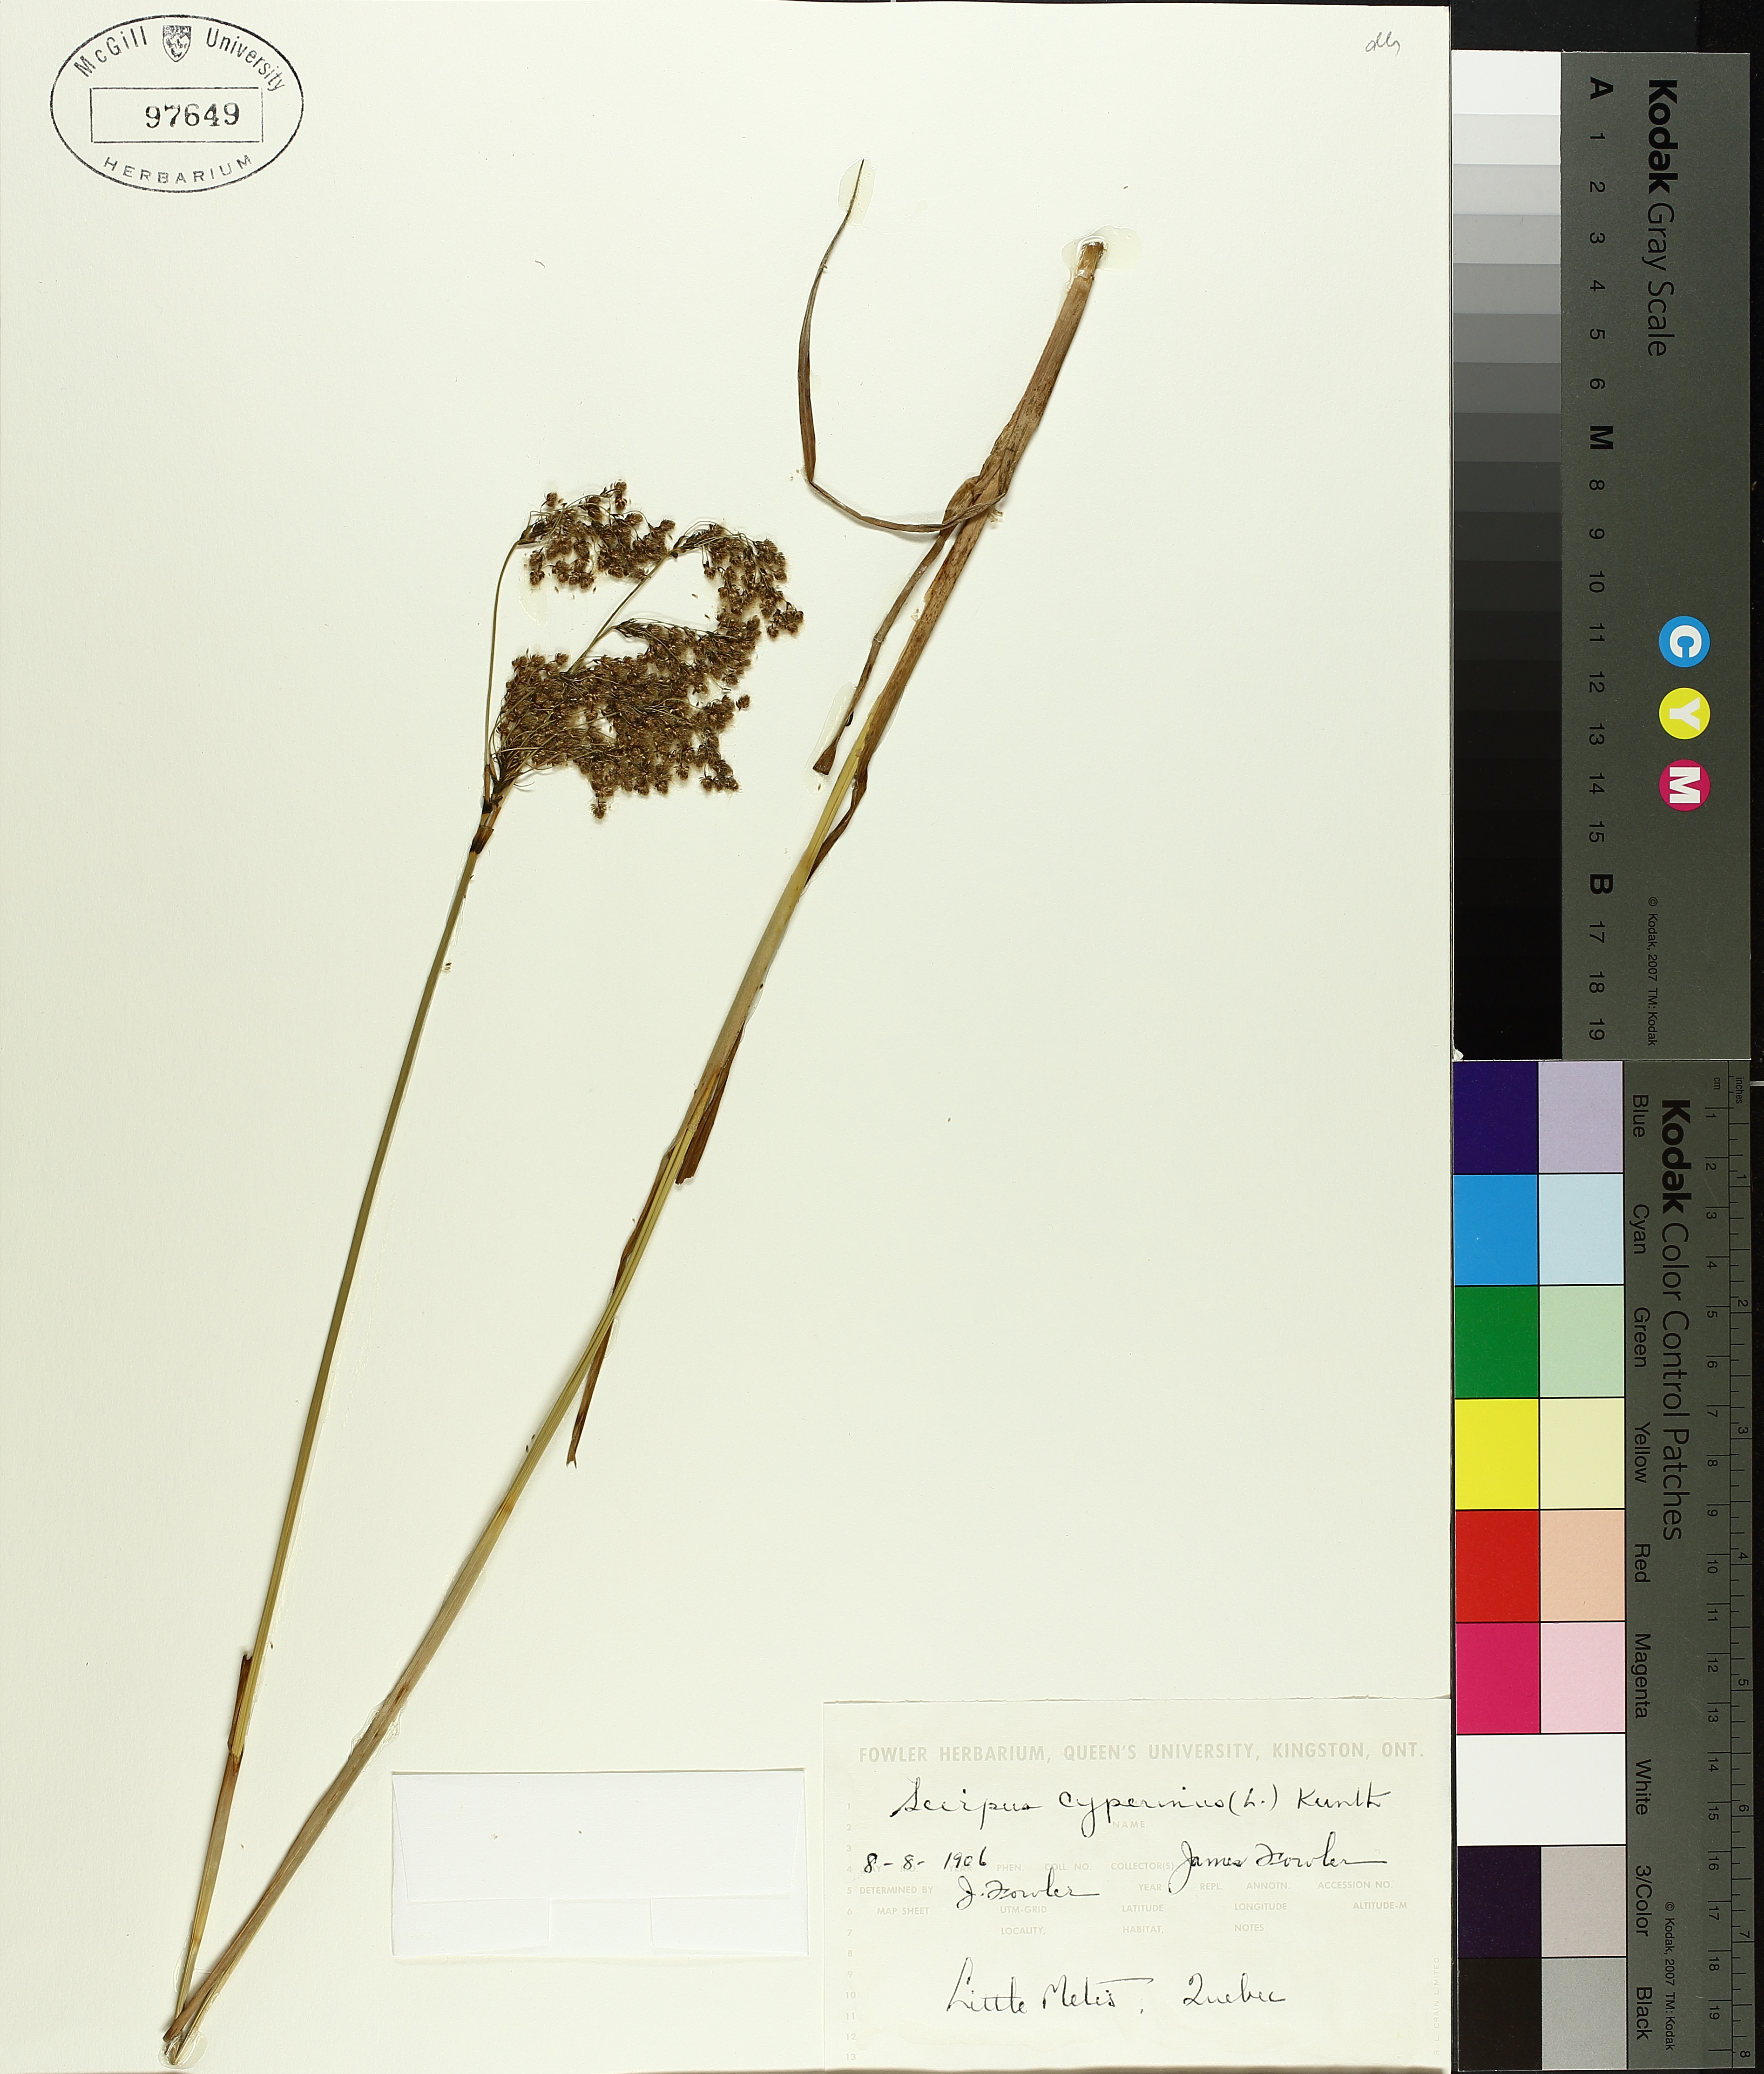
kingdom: Plantae
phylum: Tracheophyta
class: Liliopsida
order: Poales
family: Cyperaceae
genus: Scirpus
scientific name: Scirpus cyperinus
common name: Black-sheathed bulrush
